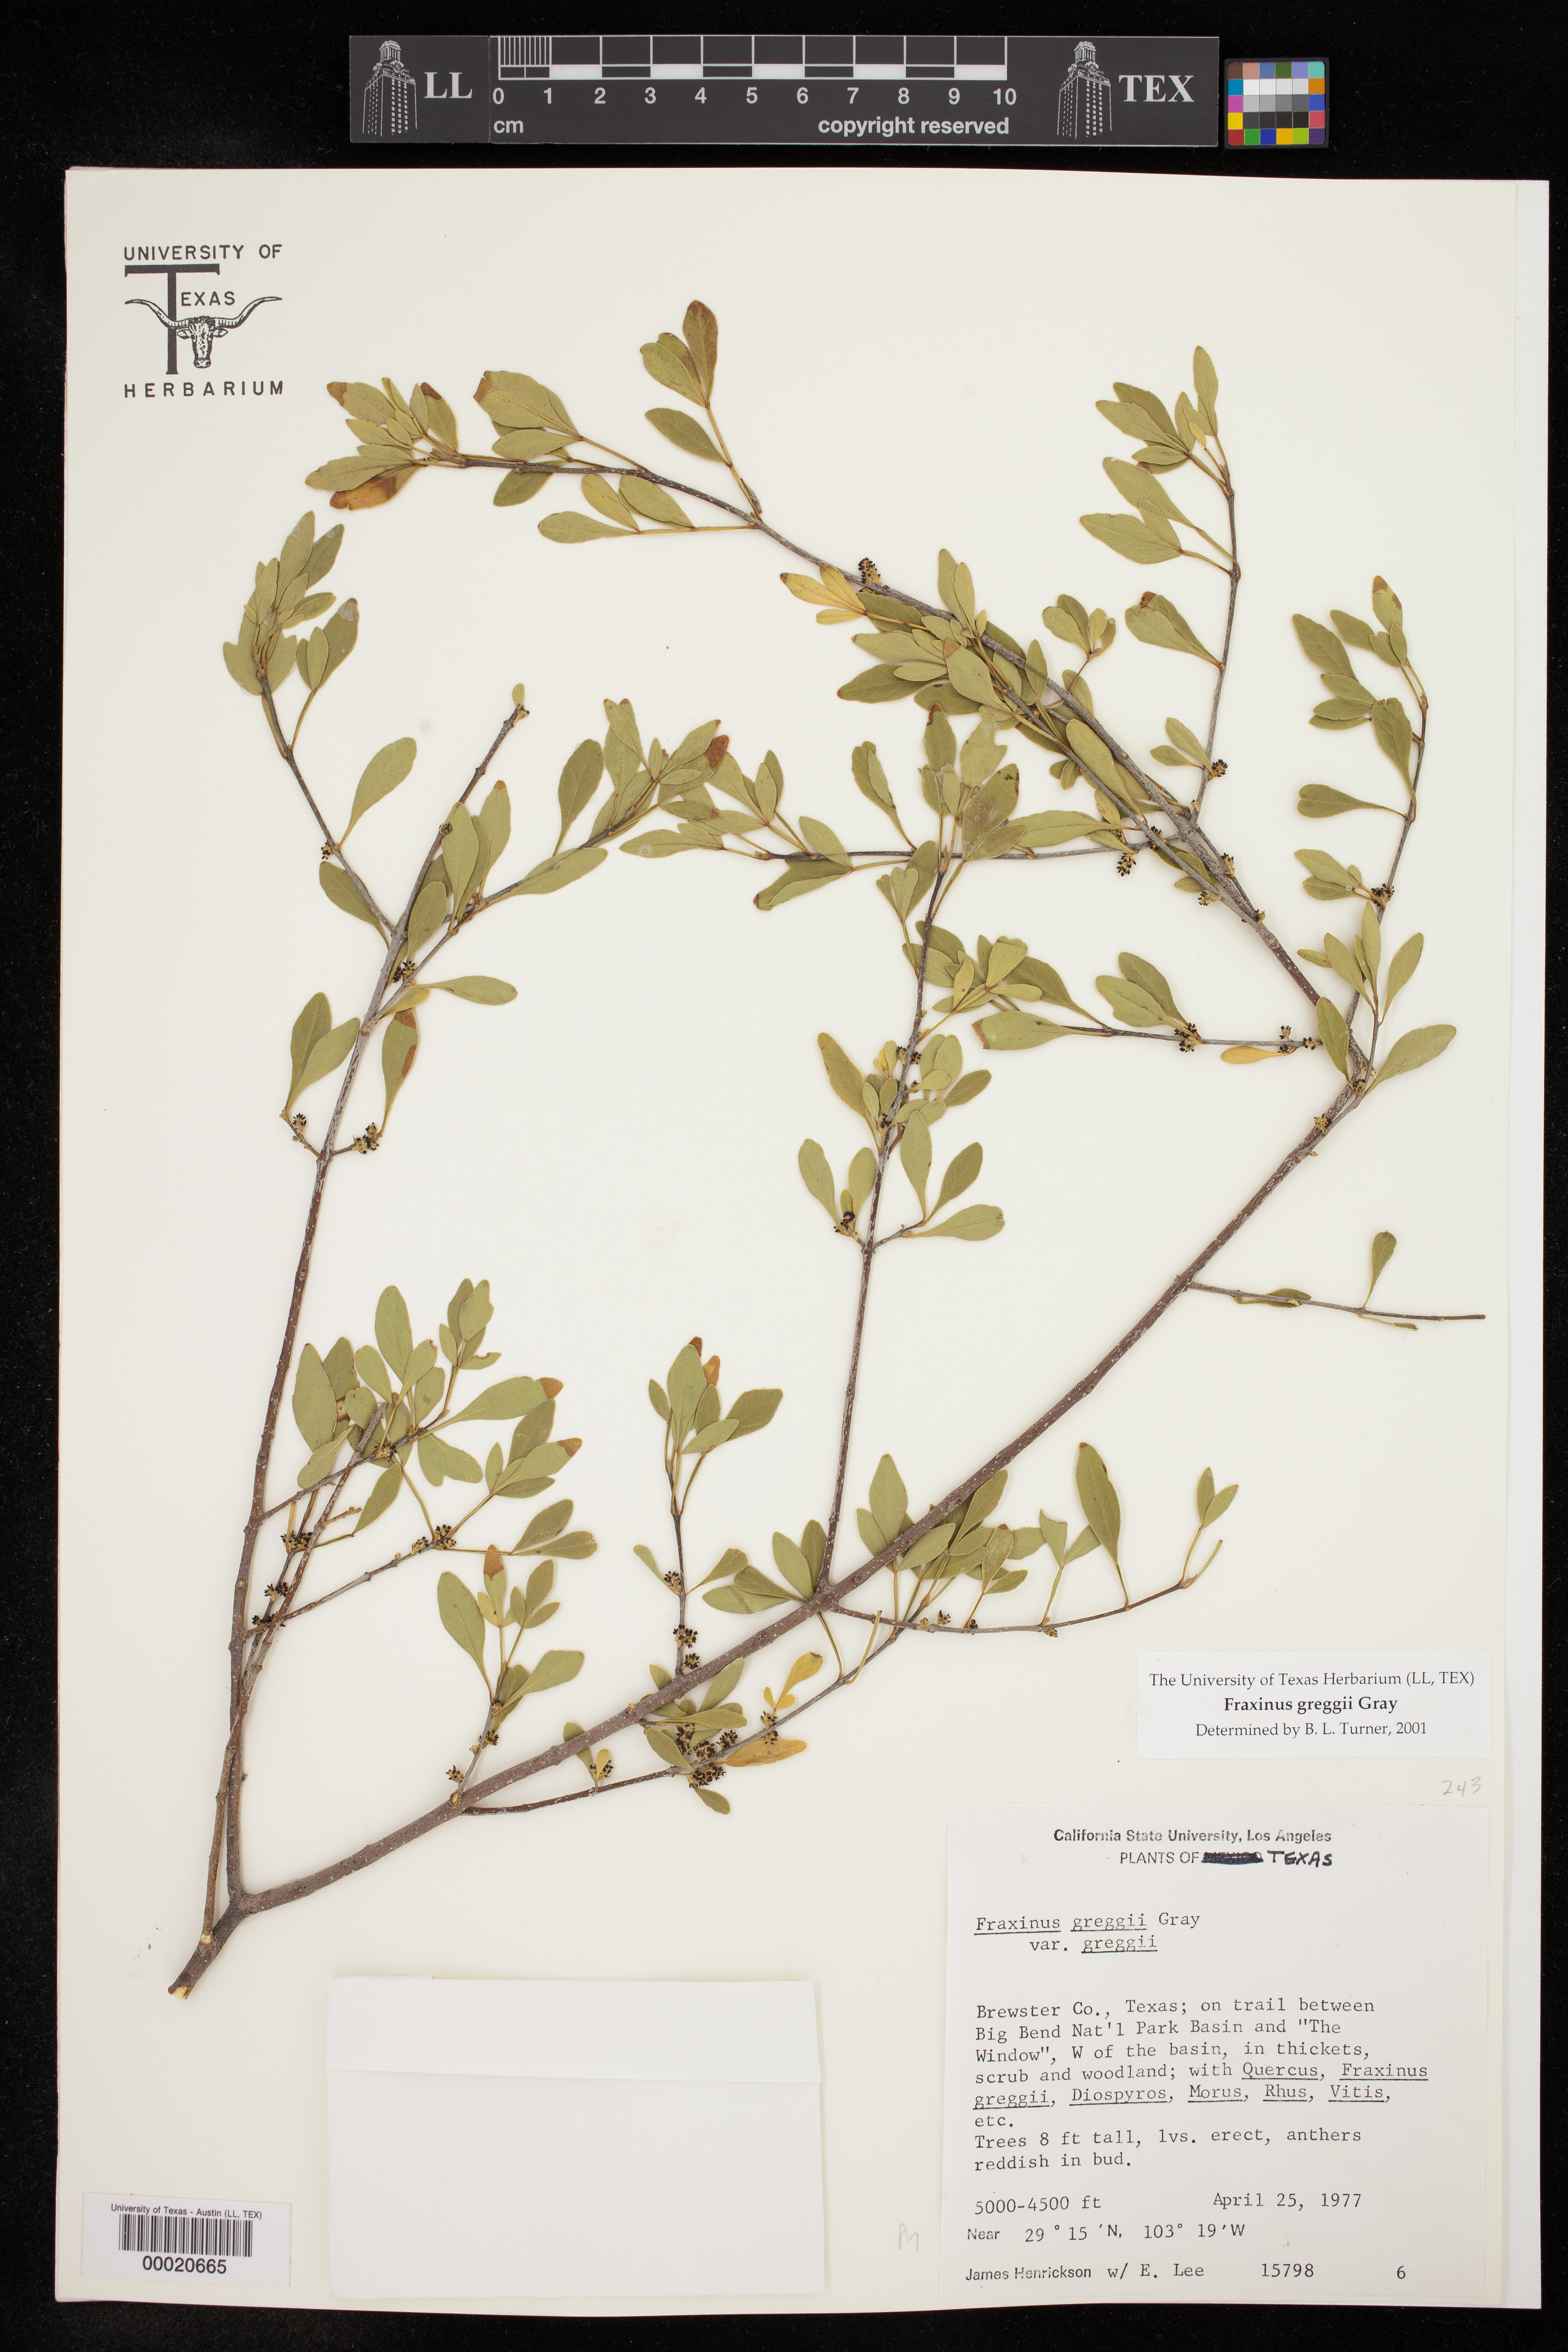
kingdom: Plantae
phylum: Tracheophyta
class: Magnoliopsida
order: Lamiales
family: Oleaceae
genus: Fraxinus
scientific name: Fraxinus greggii
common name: Gregg ash
